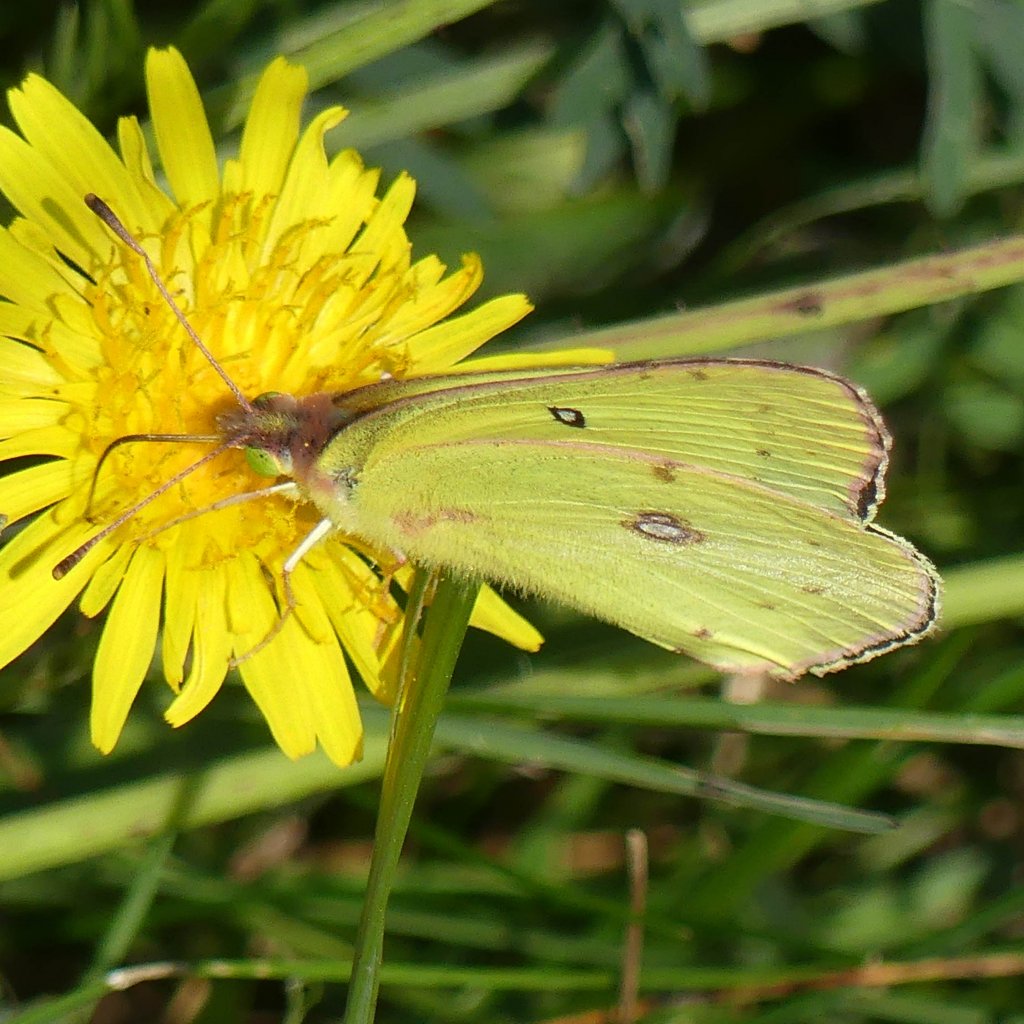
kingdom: Animalia
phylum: Arthropoda
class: Insecta
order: Lepidoptera
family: Pieridae
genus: Colias
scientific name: Colias philodice
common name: Clouded Sulphur
